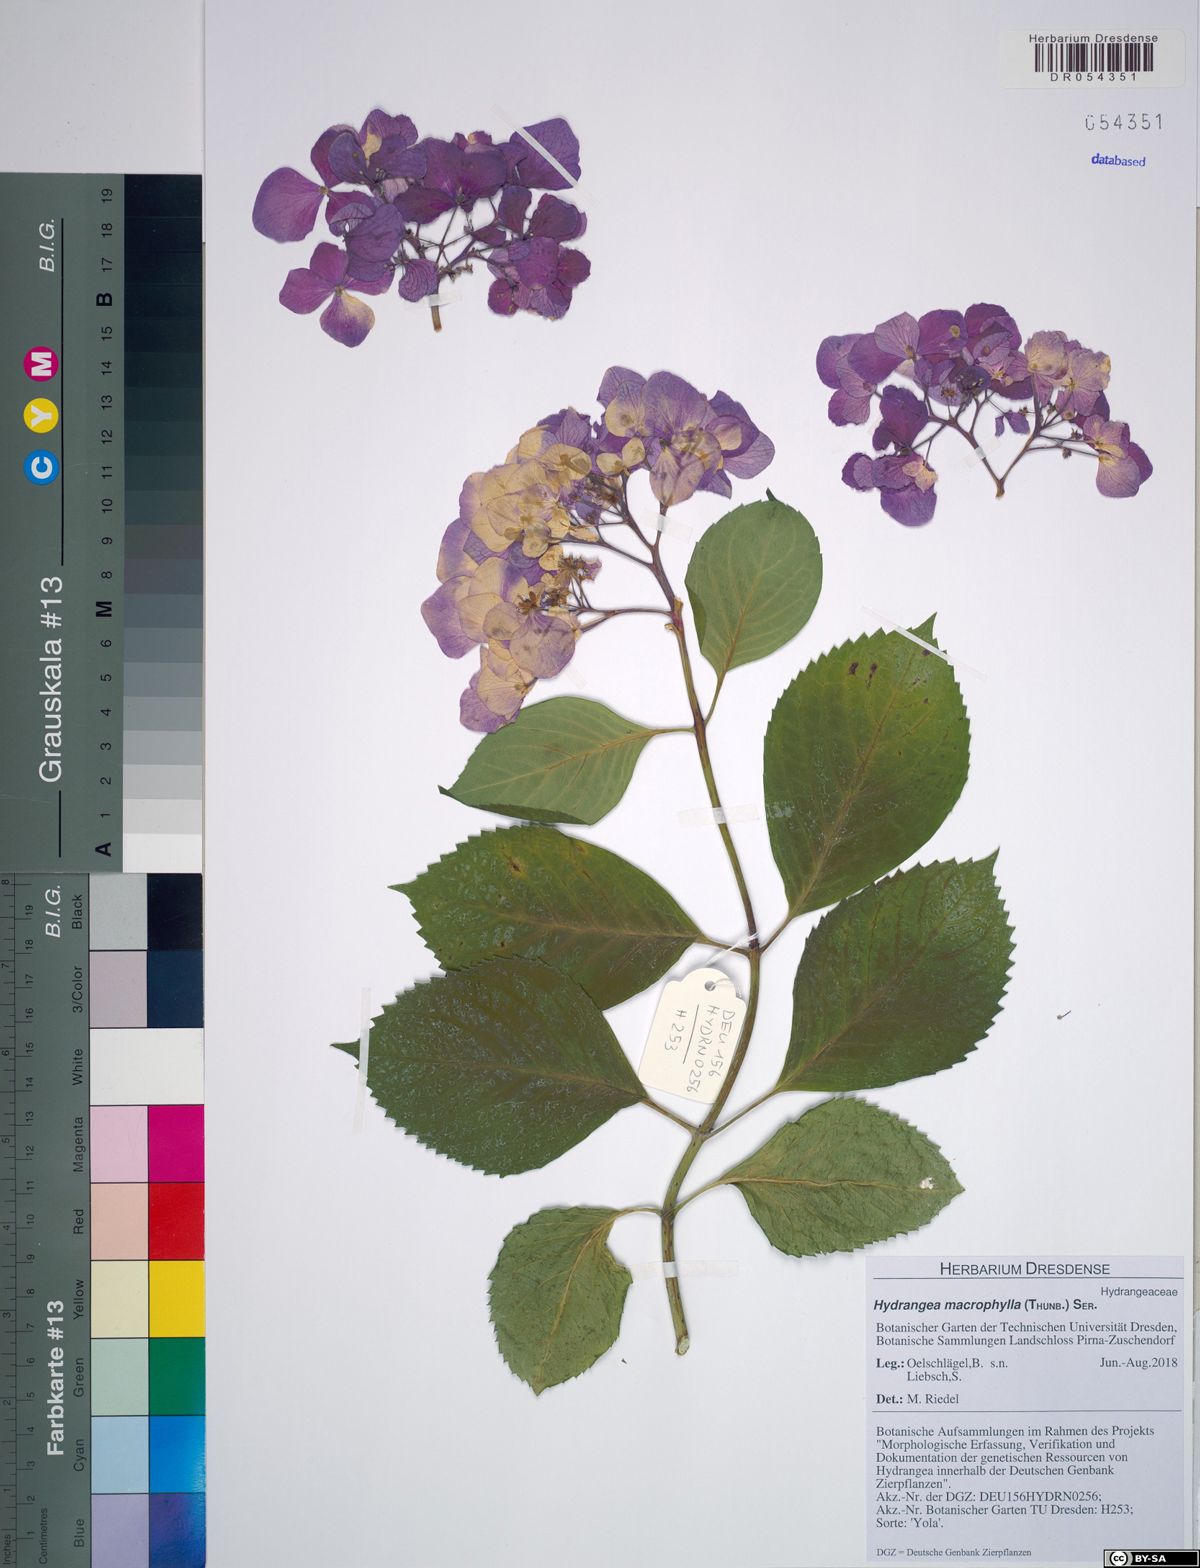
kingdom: Plantae
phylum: Tracheophyta
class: Magnoliopsida
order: Cornales
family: Hydrangeaceae
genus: Hydrangea
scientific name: Hydrangea macrophylla
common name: Hydrangea
